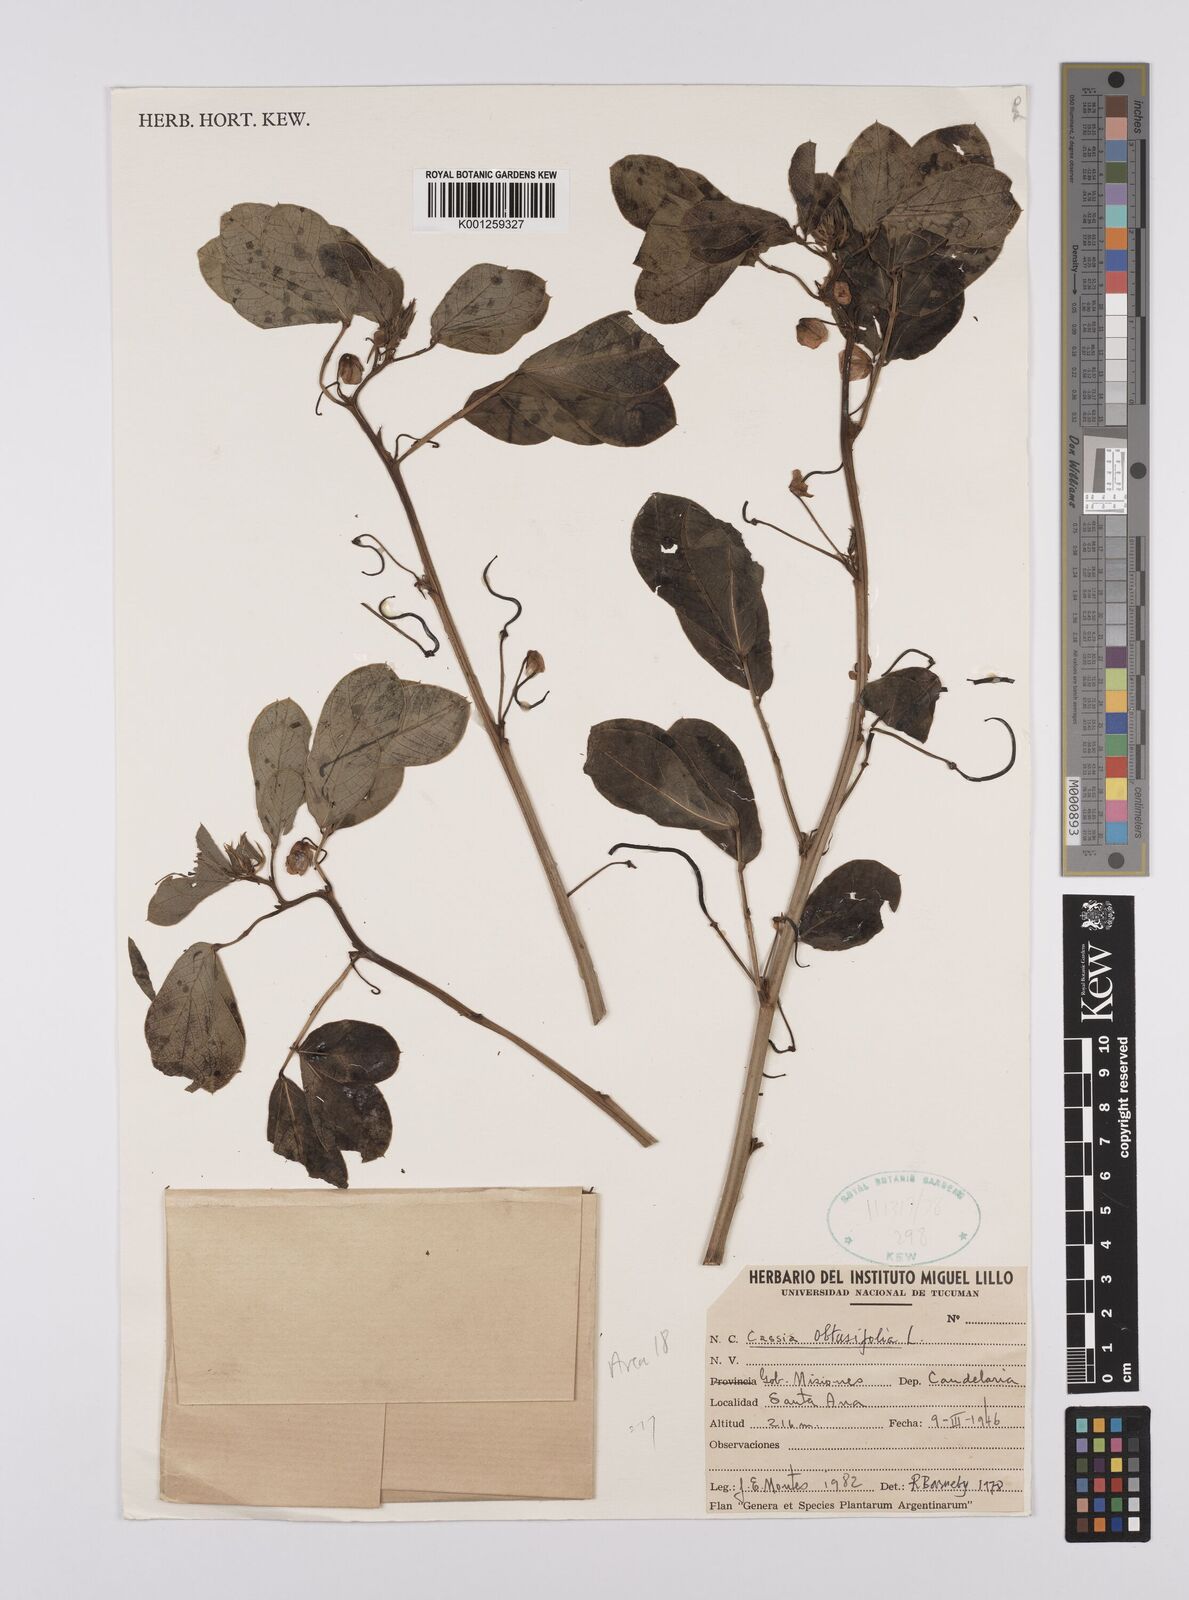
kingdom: Plantae
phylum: Tracheophyta
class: Magnoliopsida
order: Fabales
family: Fabaceae
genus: Senna
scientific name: Senna obtusifolia
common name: Java-bean
